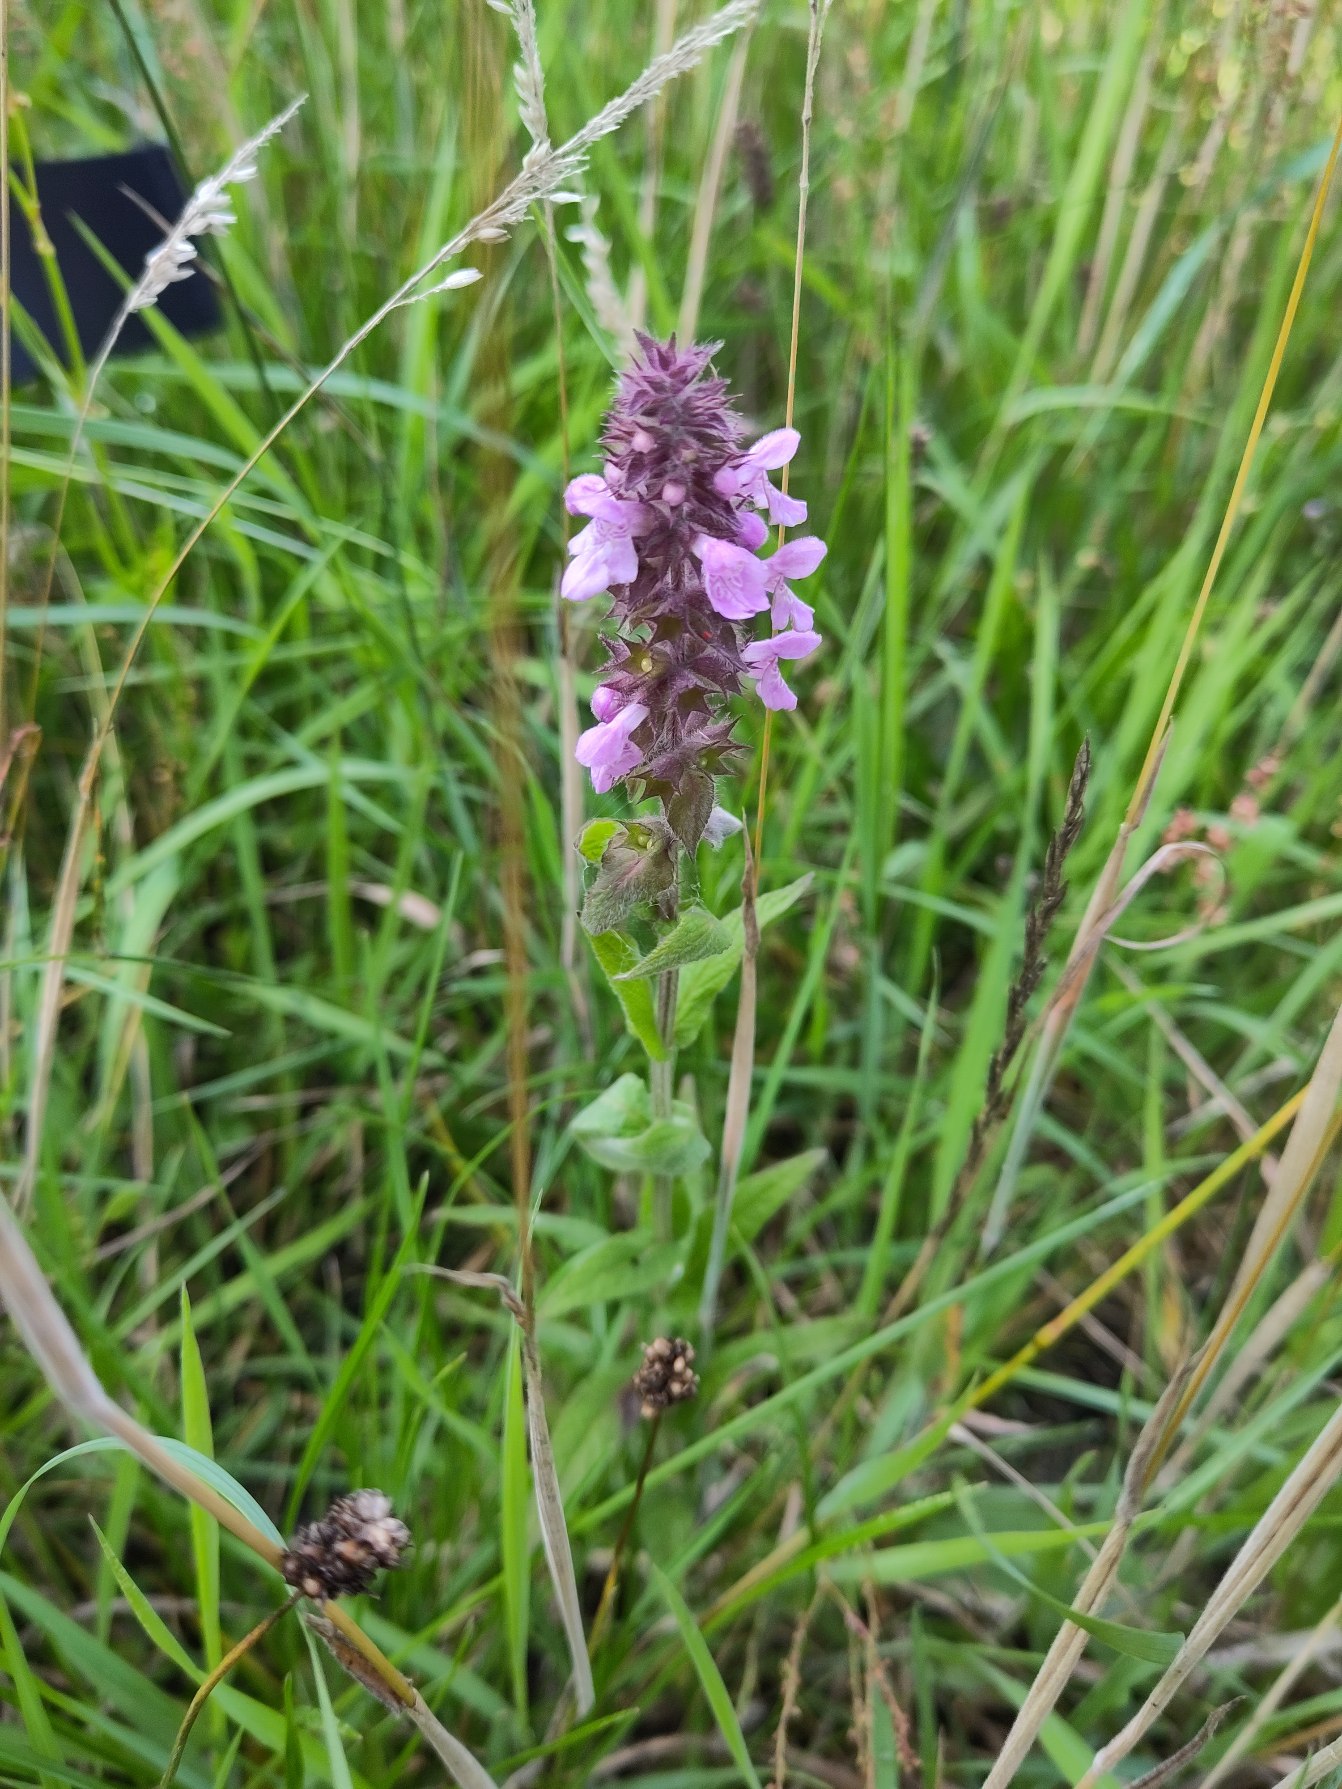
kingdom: Plantae
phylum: Tracheophyta
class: Magnoliopsida
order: Lamiales
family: Lamiaceae
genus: Stachys
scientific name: Stachys palustris
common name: Kær-galtetand
